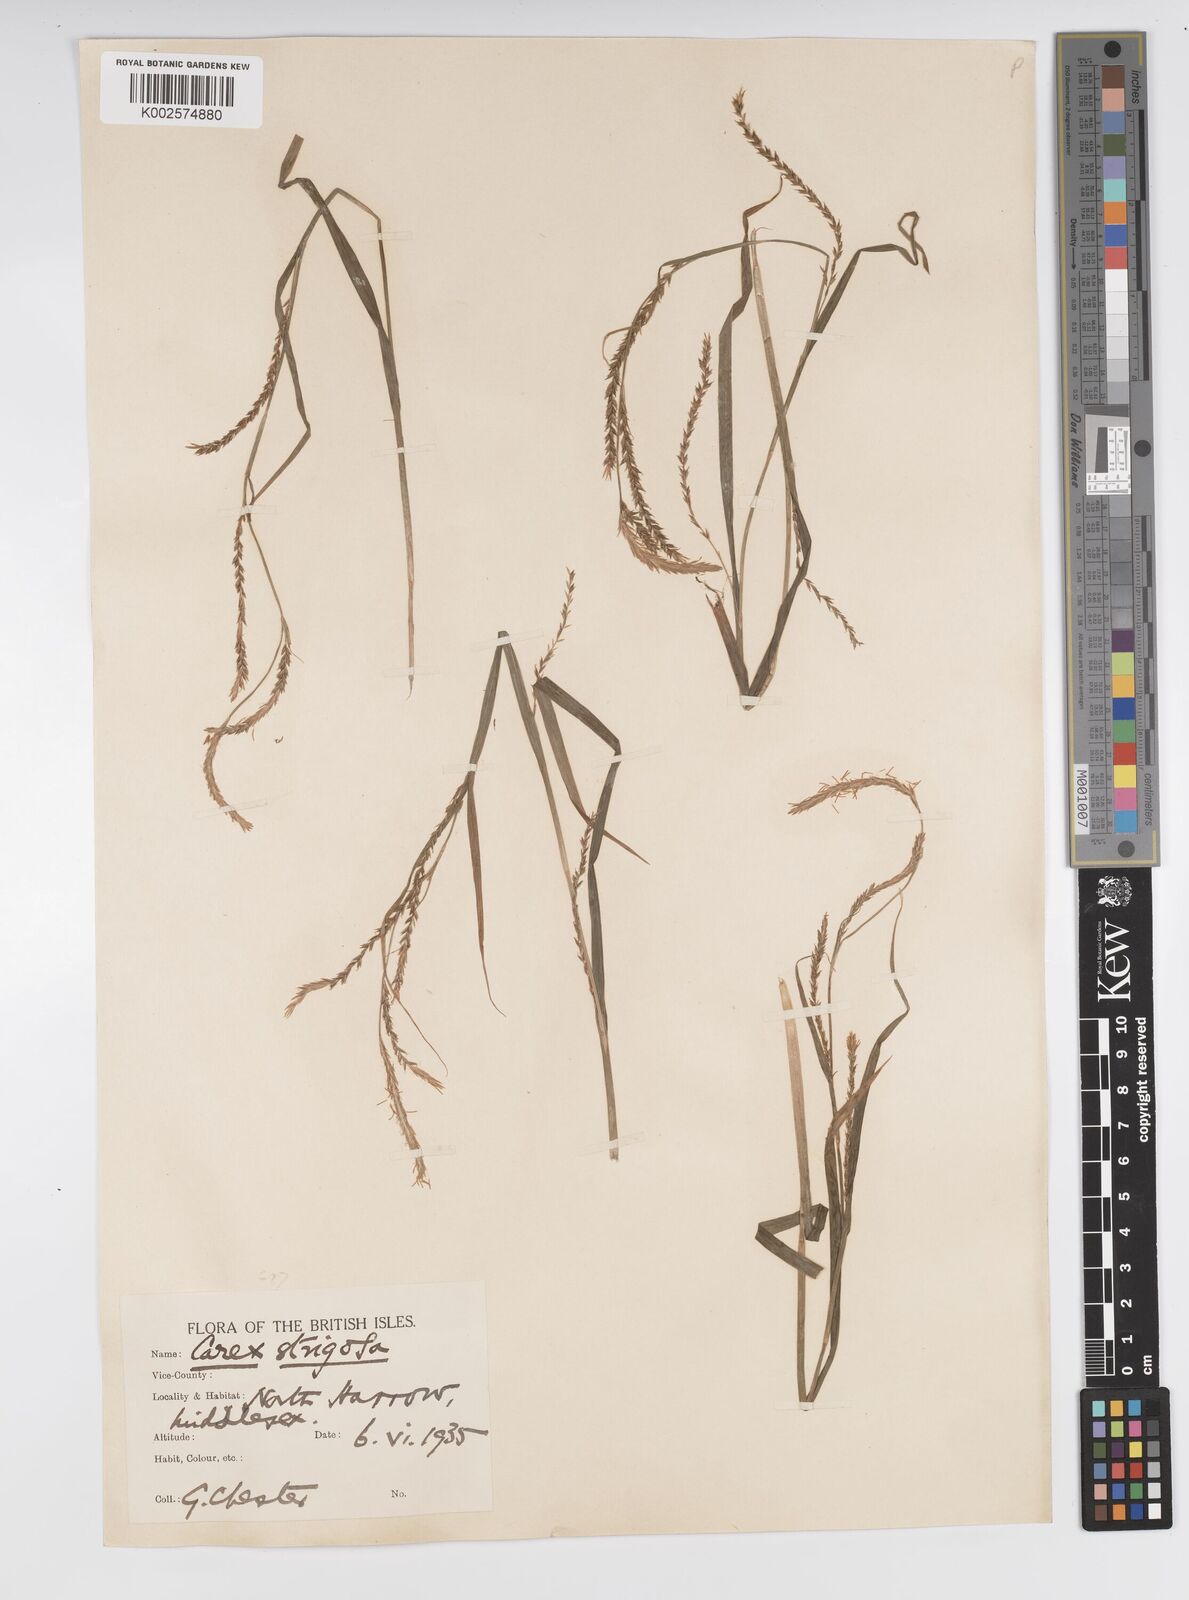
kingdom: Plantae
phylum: Tracheophyta
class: Liliopsida
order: Poales
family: Cyperaceae
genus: Carex
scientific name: Carex strigosa
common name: Thin-spiked wood-sedge
